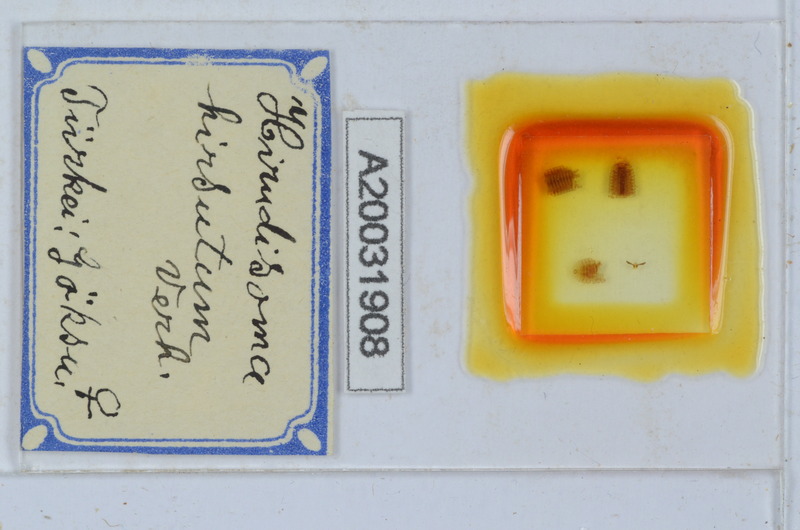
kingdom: Animalia
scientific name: Animalia
